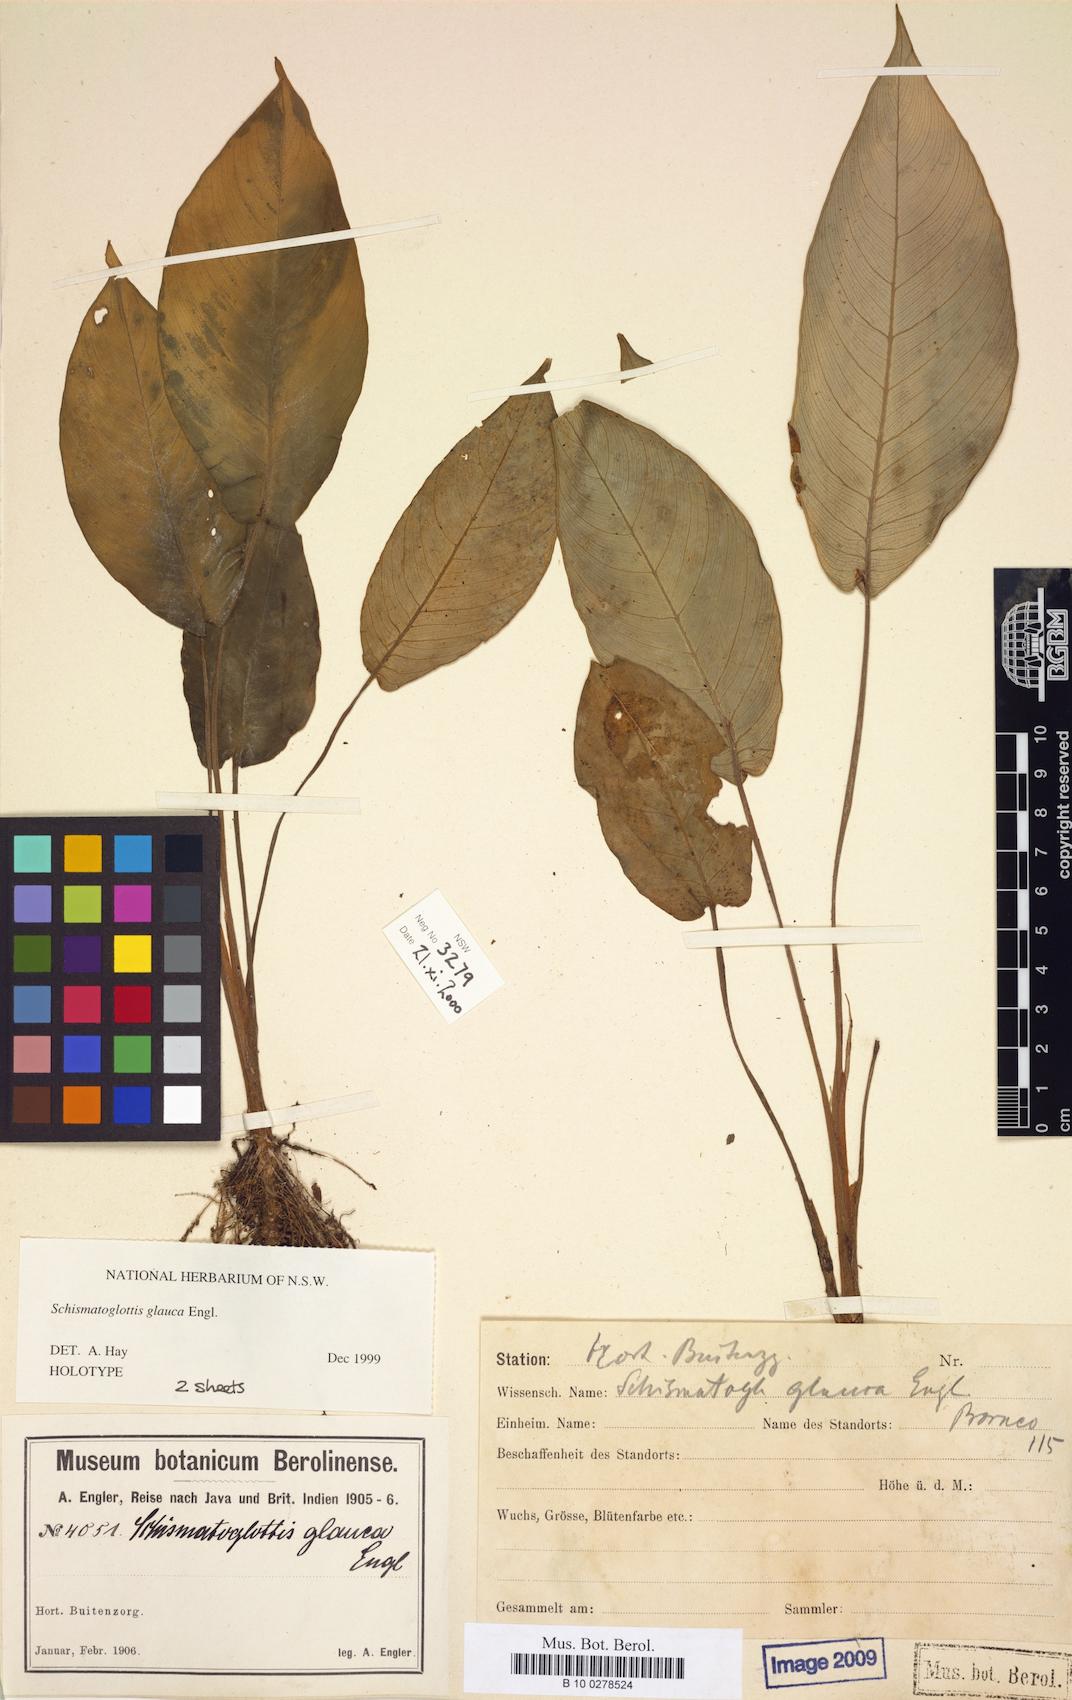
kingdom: Plantae
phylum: Tracheophyta
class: Liliopsida
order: Alismatales
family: Araceae
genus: Schismatoglottis
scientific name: Schismatoglottis glauca
